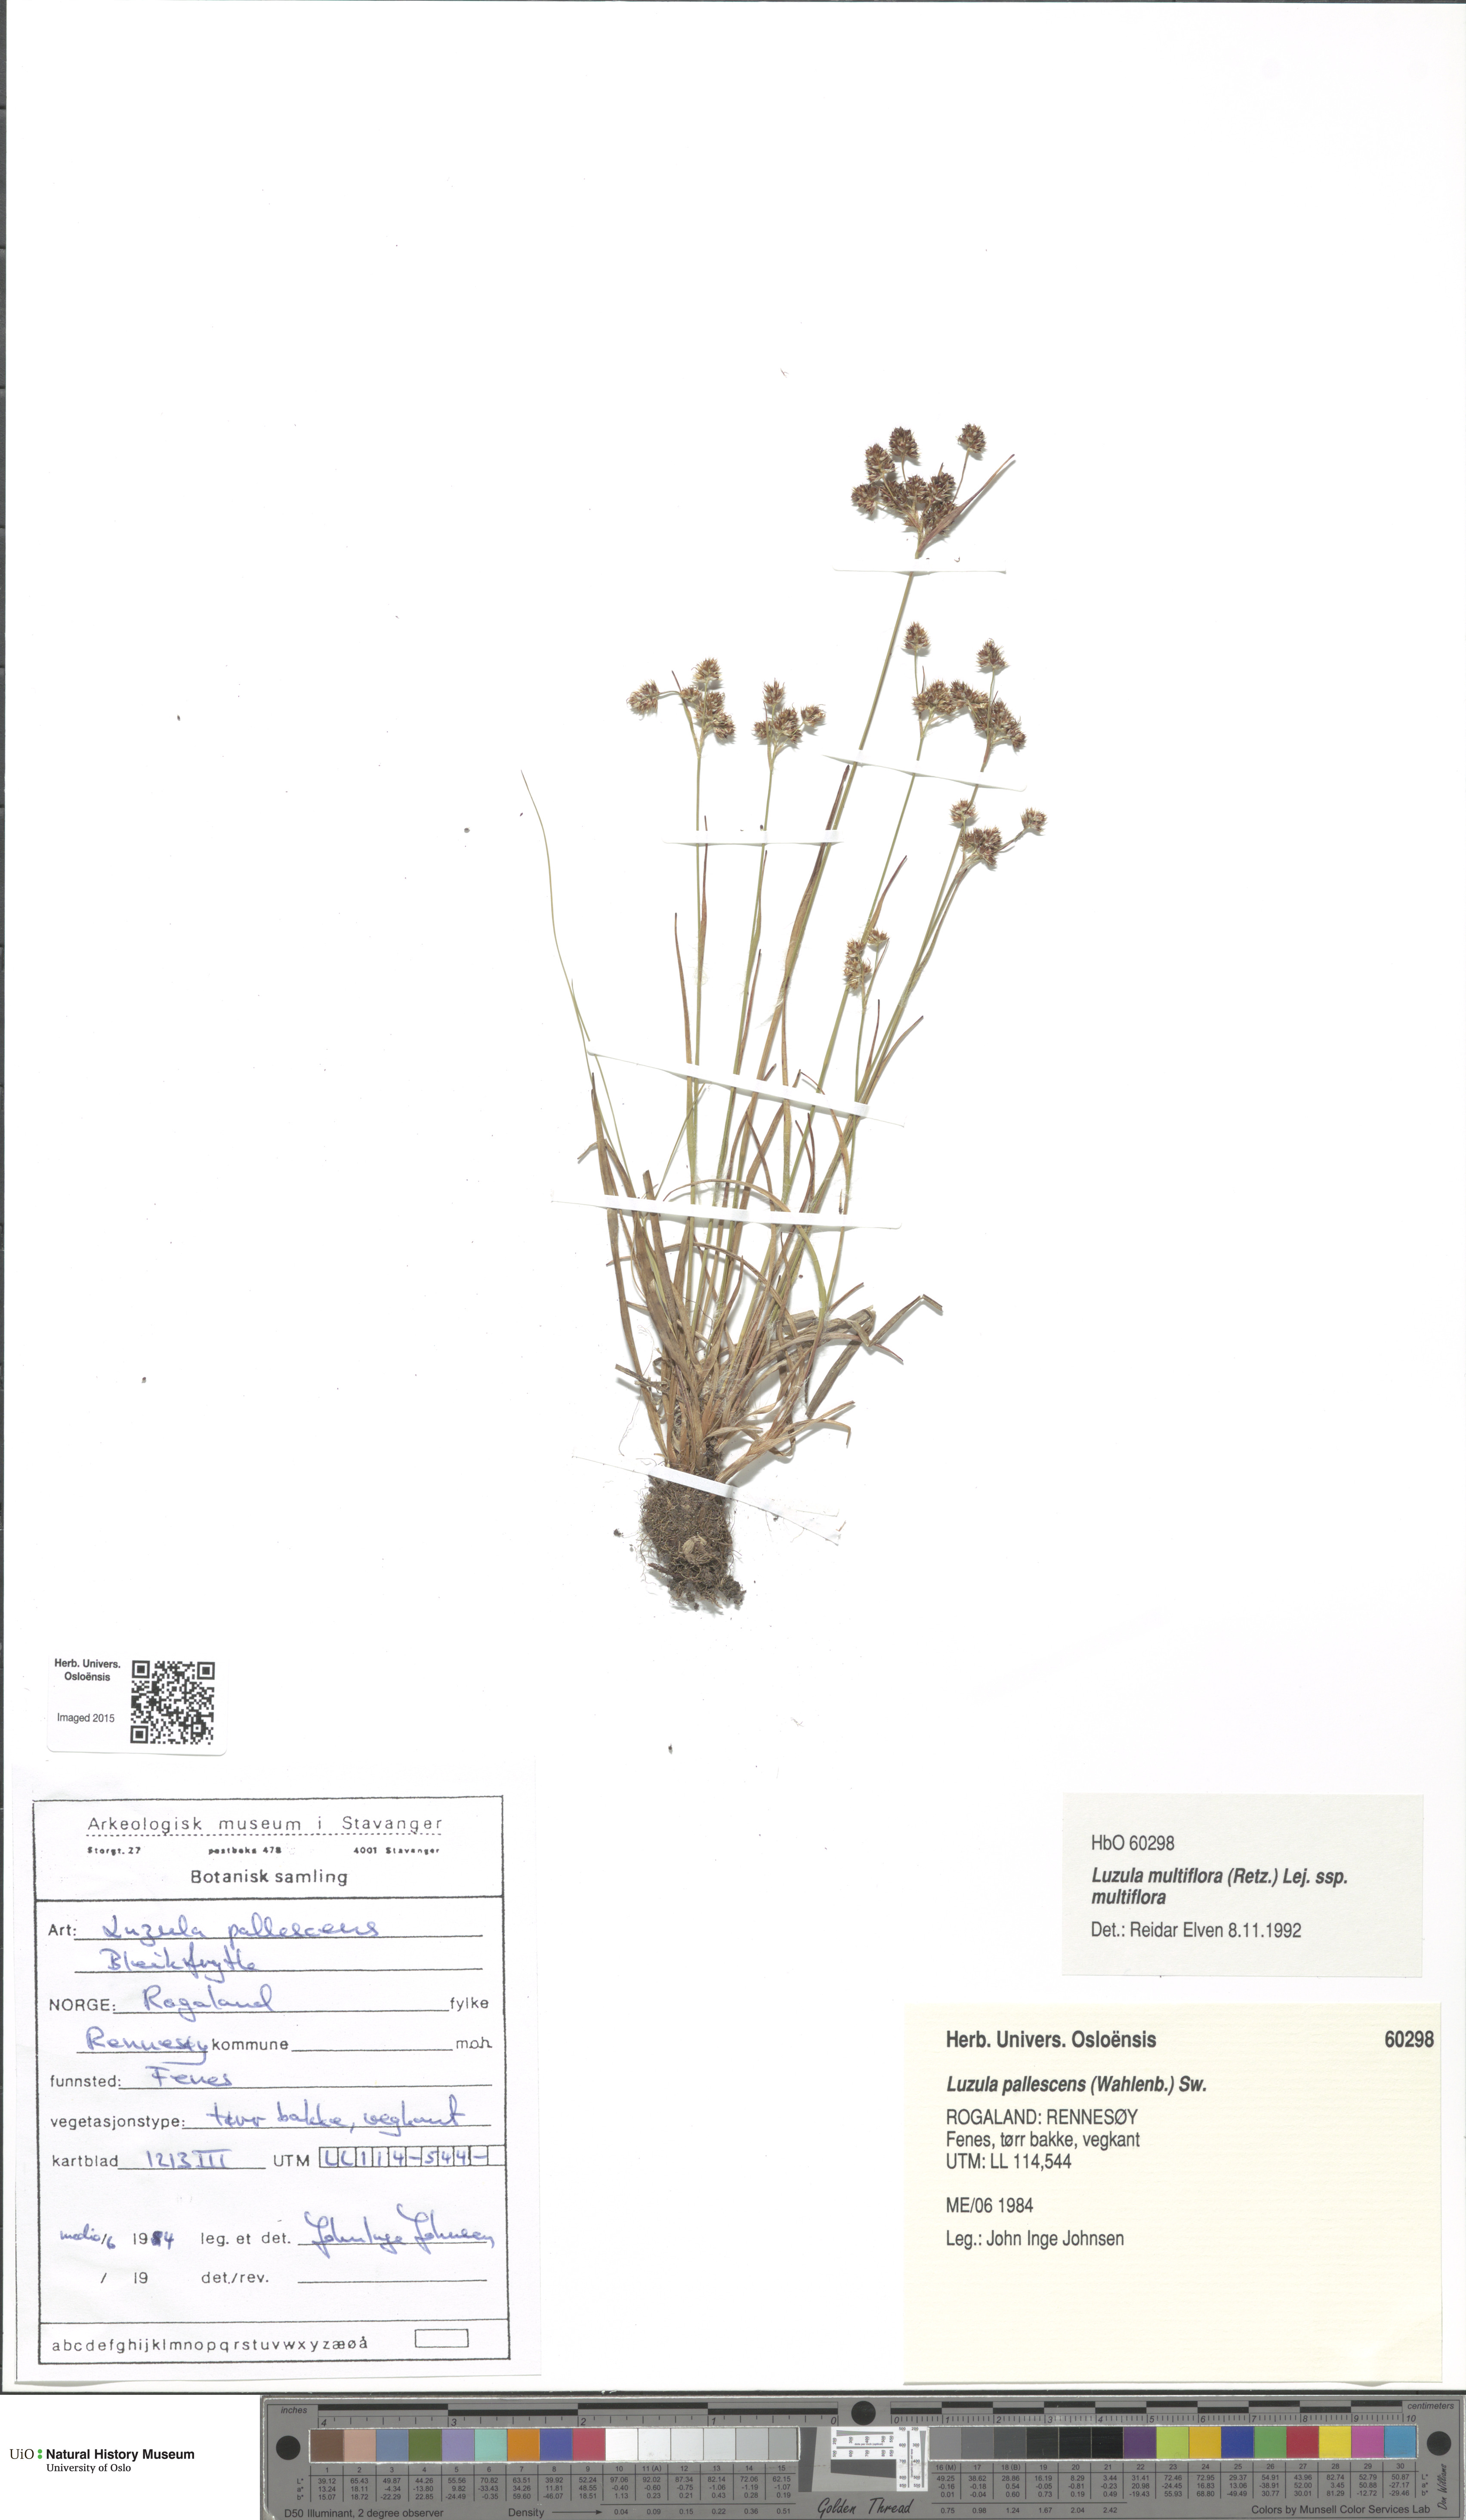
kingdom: Plantae
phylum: Tracheophyta
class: Liliopsida
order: Poales
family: Juncaceae
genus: Luzula
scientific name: Luzula multiflora
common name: Heath wood-rush
